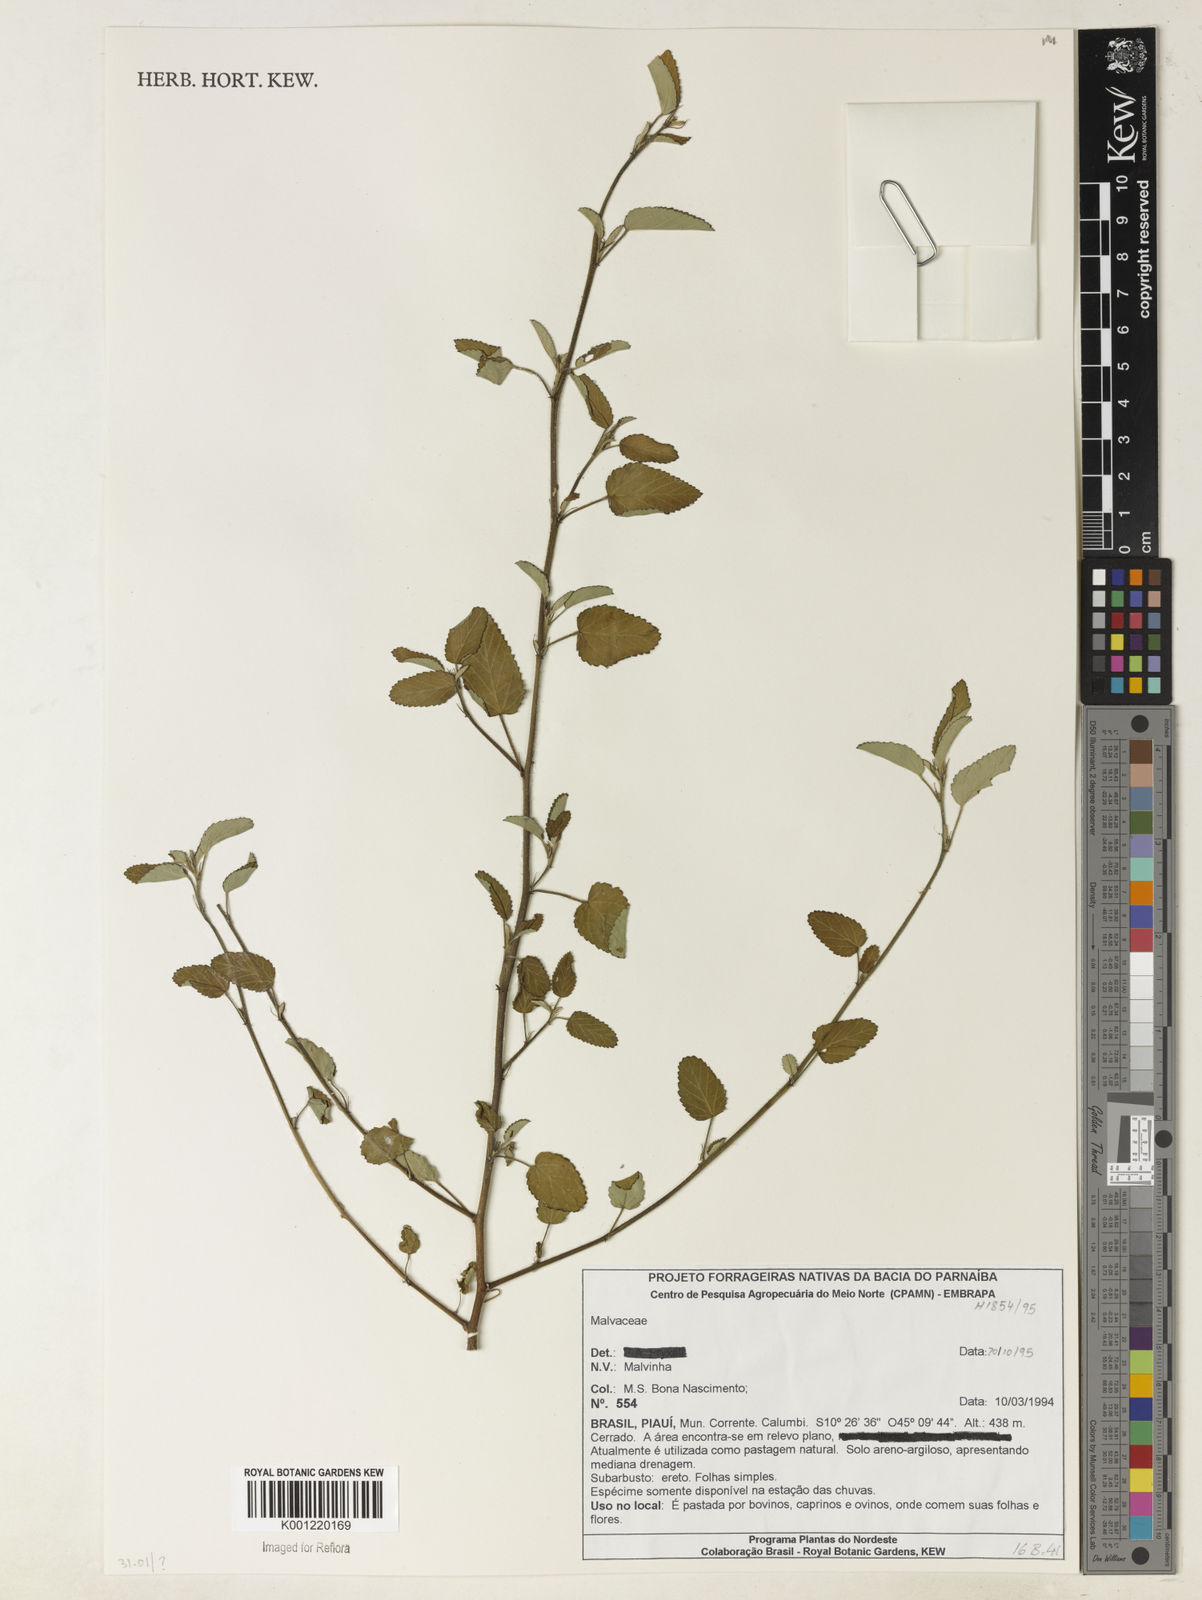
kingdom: Plantae
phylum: Tracheophyta
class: Magnoliopsida
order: Malvales
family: Malvaceae
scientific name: Malvaceae
